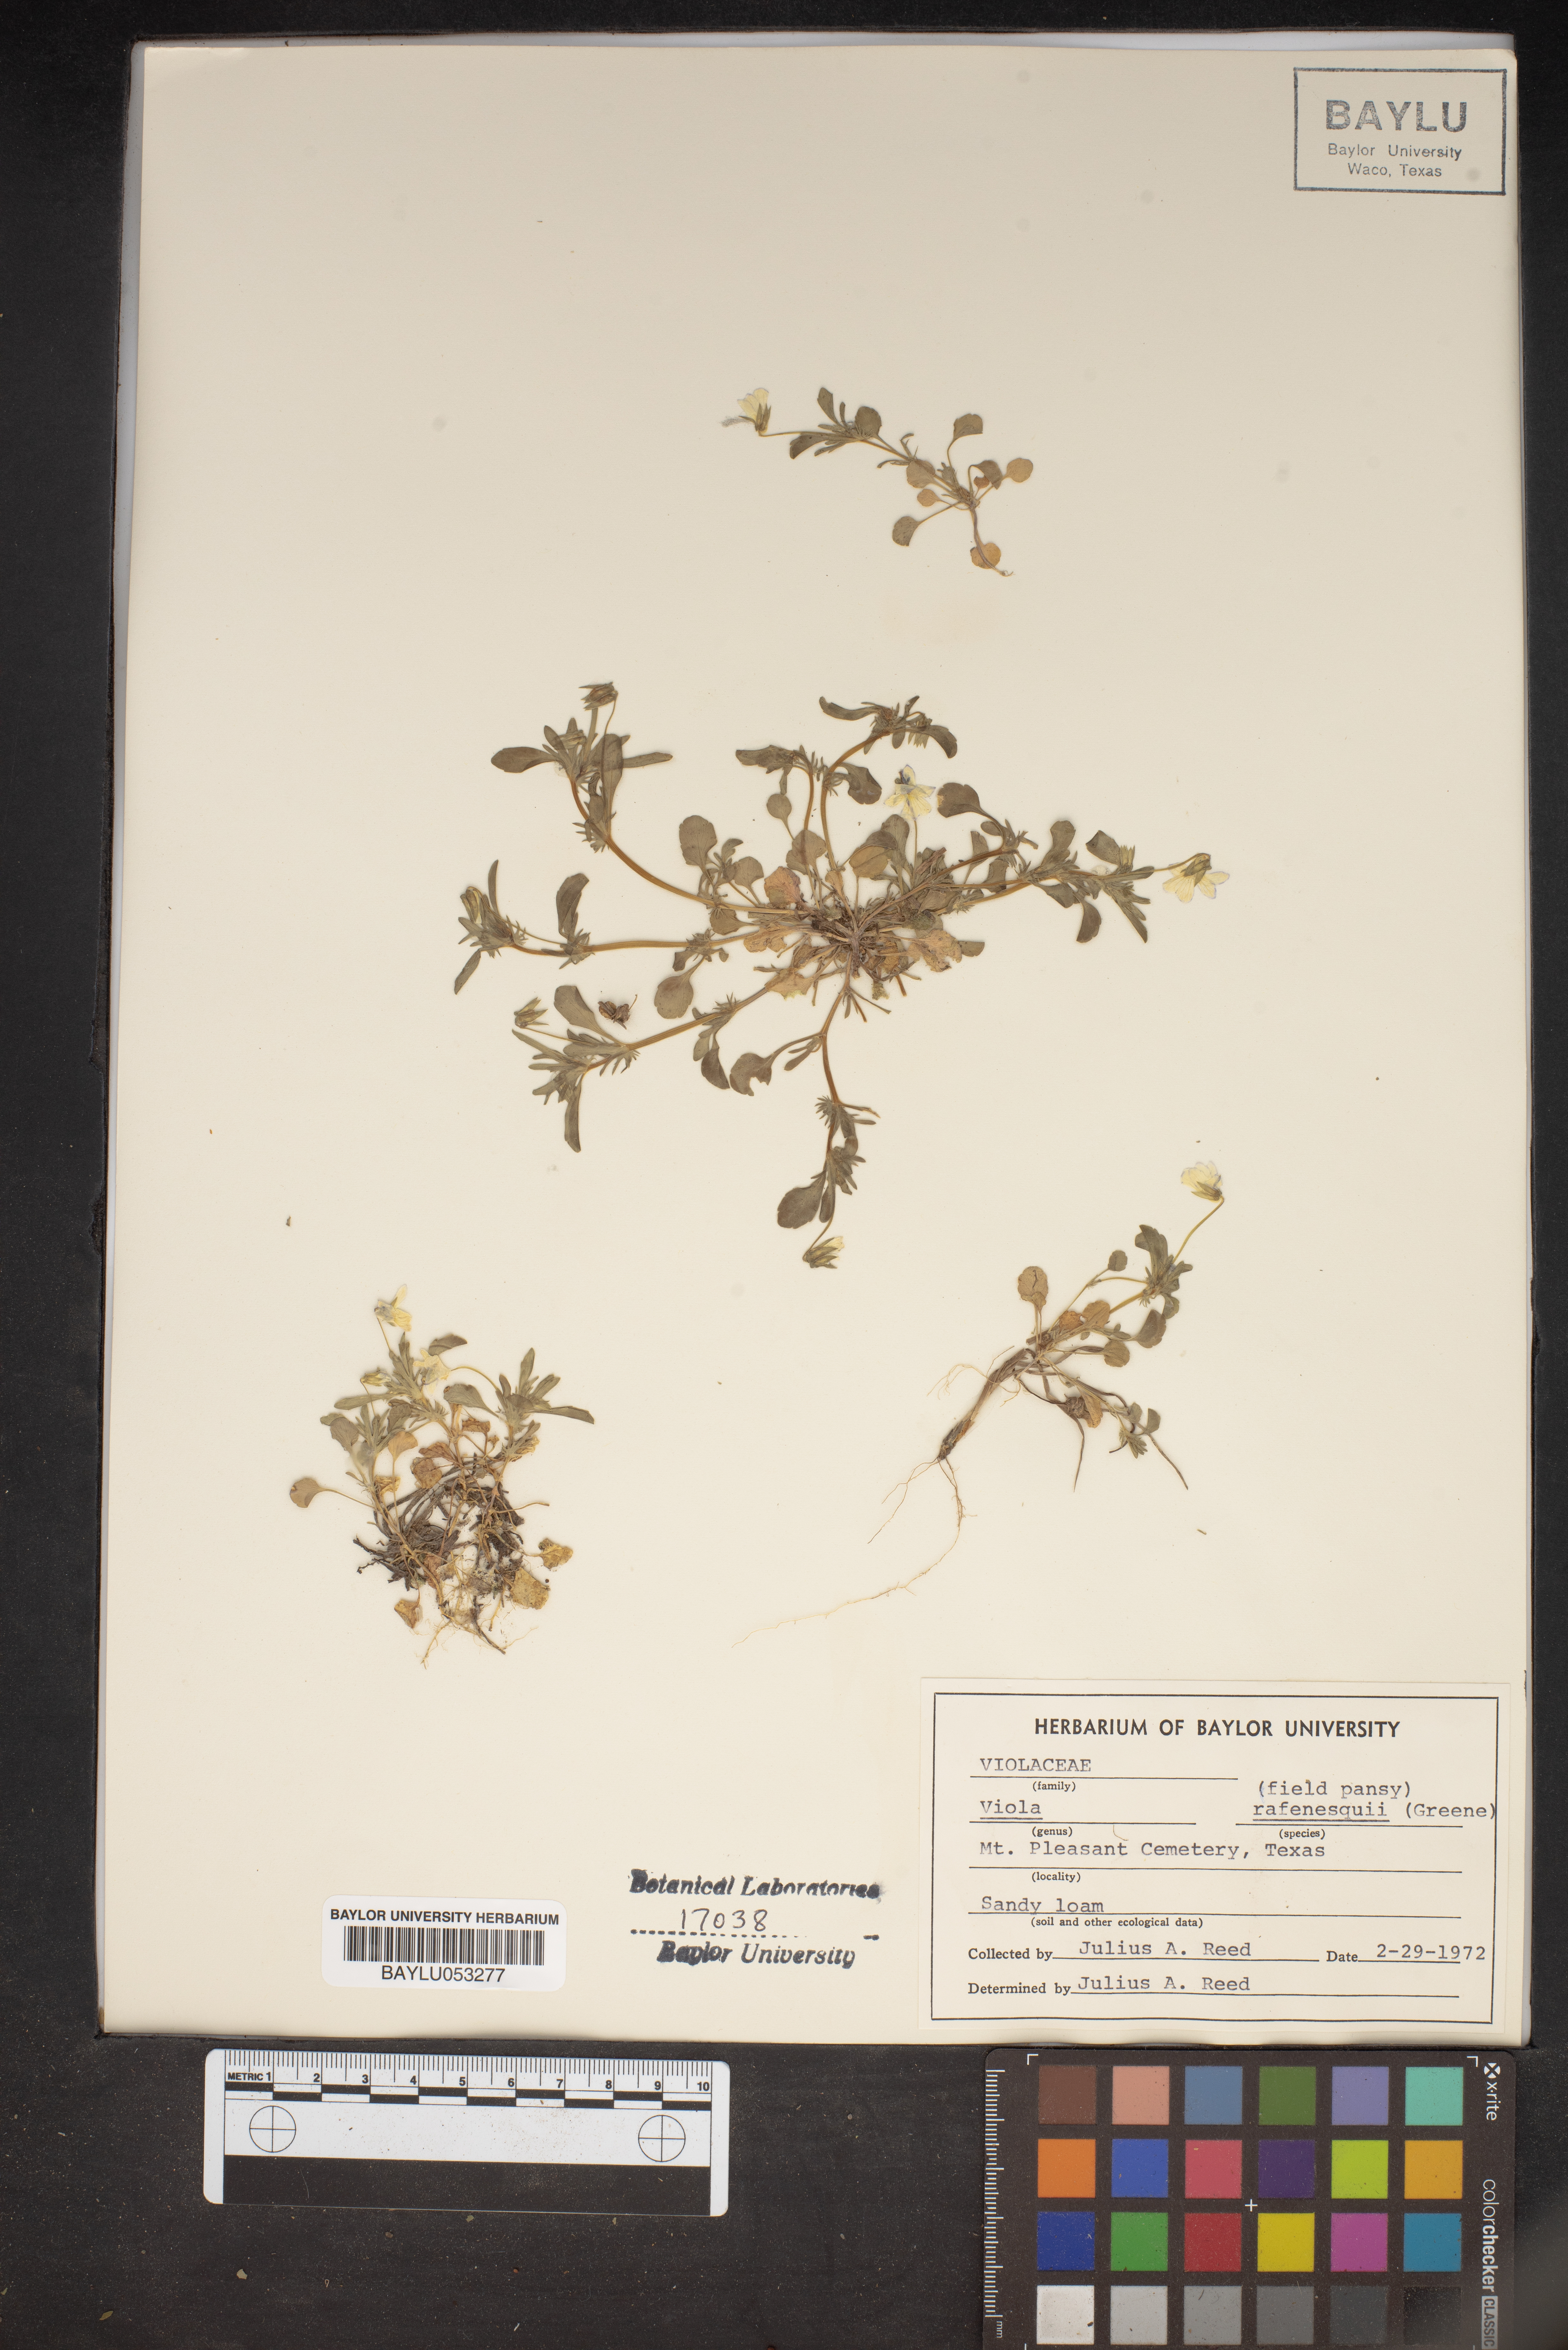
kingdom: Plantae
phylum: Tracheophyta
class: Magnoliopsida
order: Malpighiales
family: Violaceae
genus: Viola
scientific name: Viola rafinesquei
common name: American field pansy
